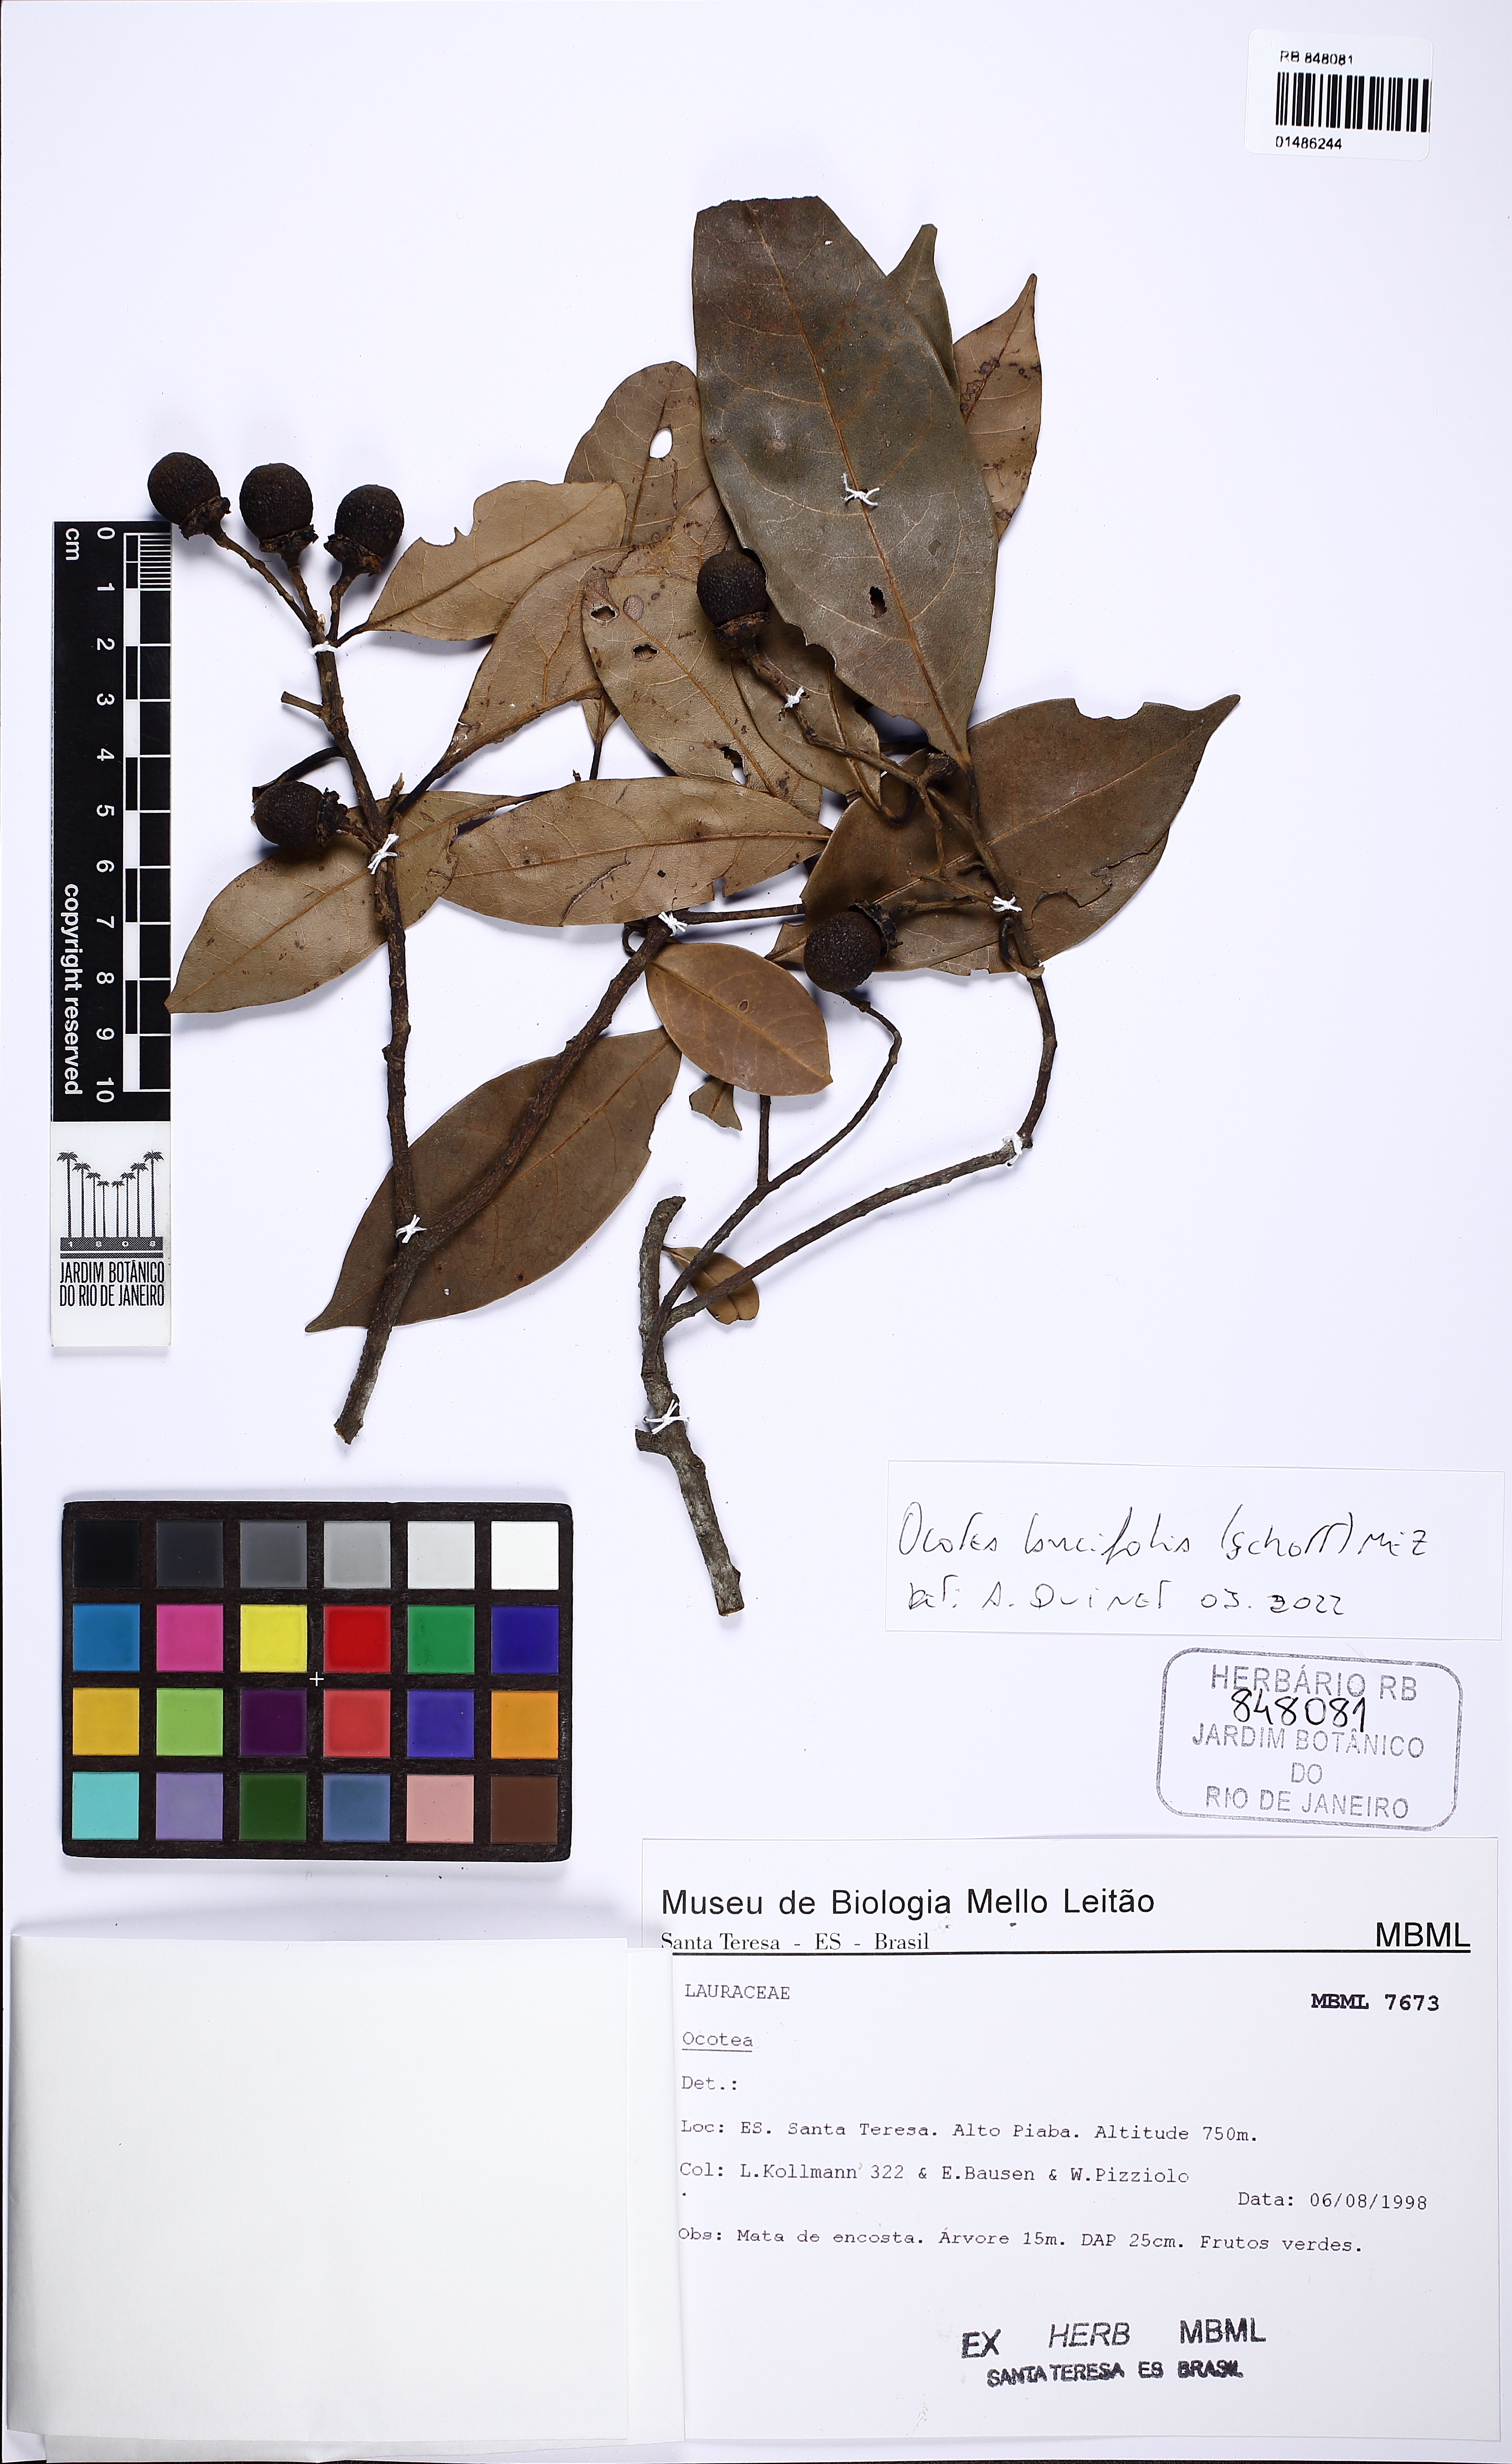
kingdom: Plantae
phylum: Tracheophyta
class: Magnoliopsida
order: Laurales
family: Lauraceae
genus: Ocotea
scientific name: Ocotea lancifolia
